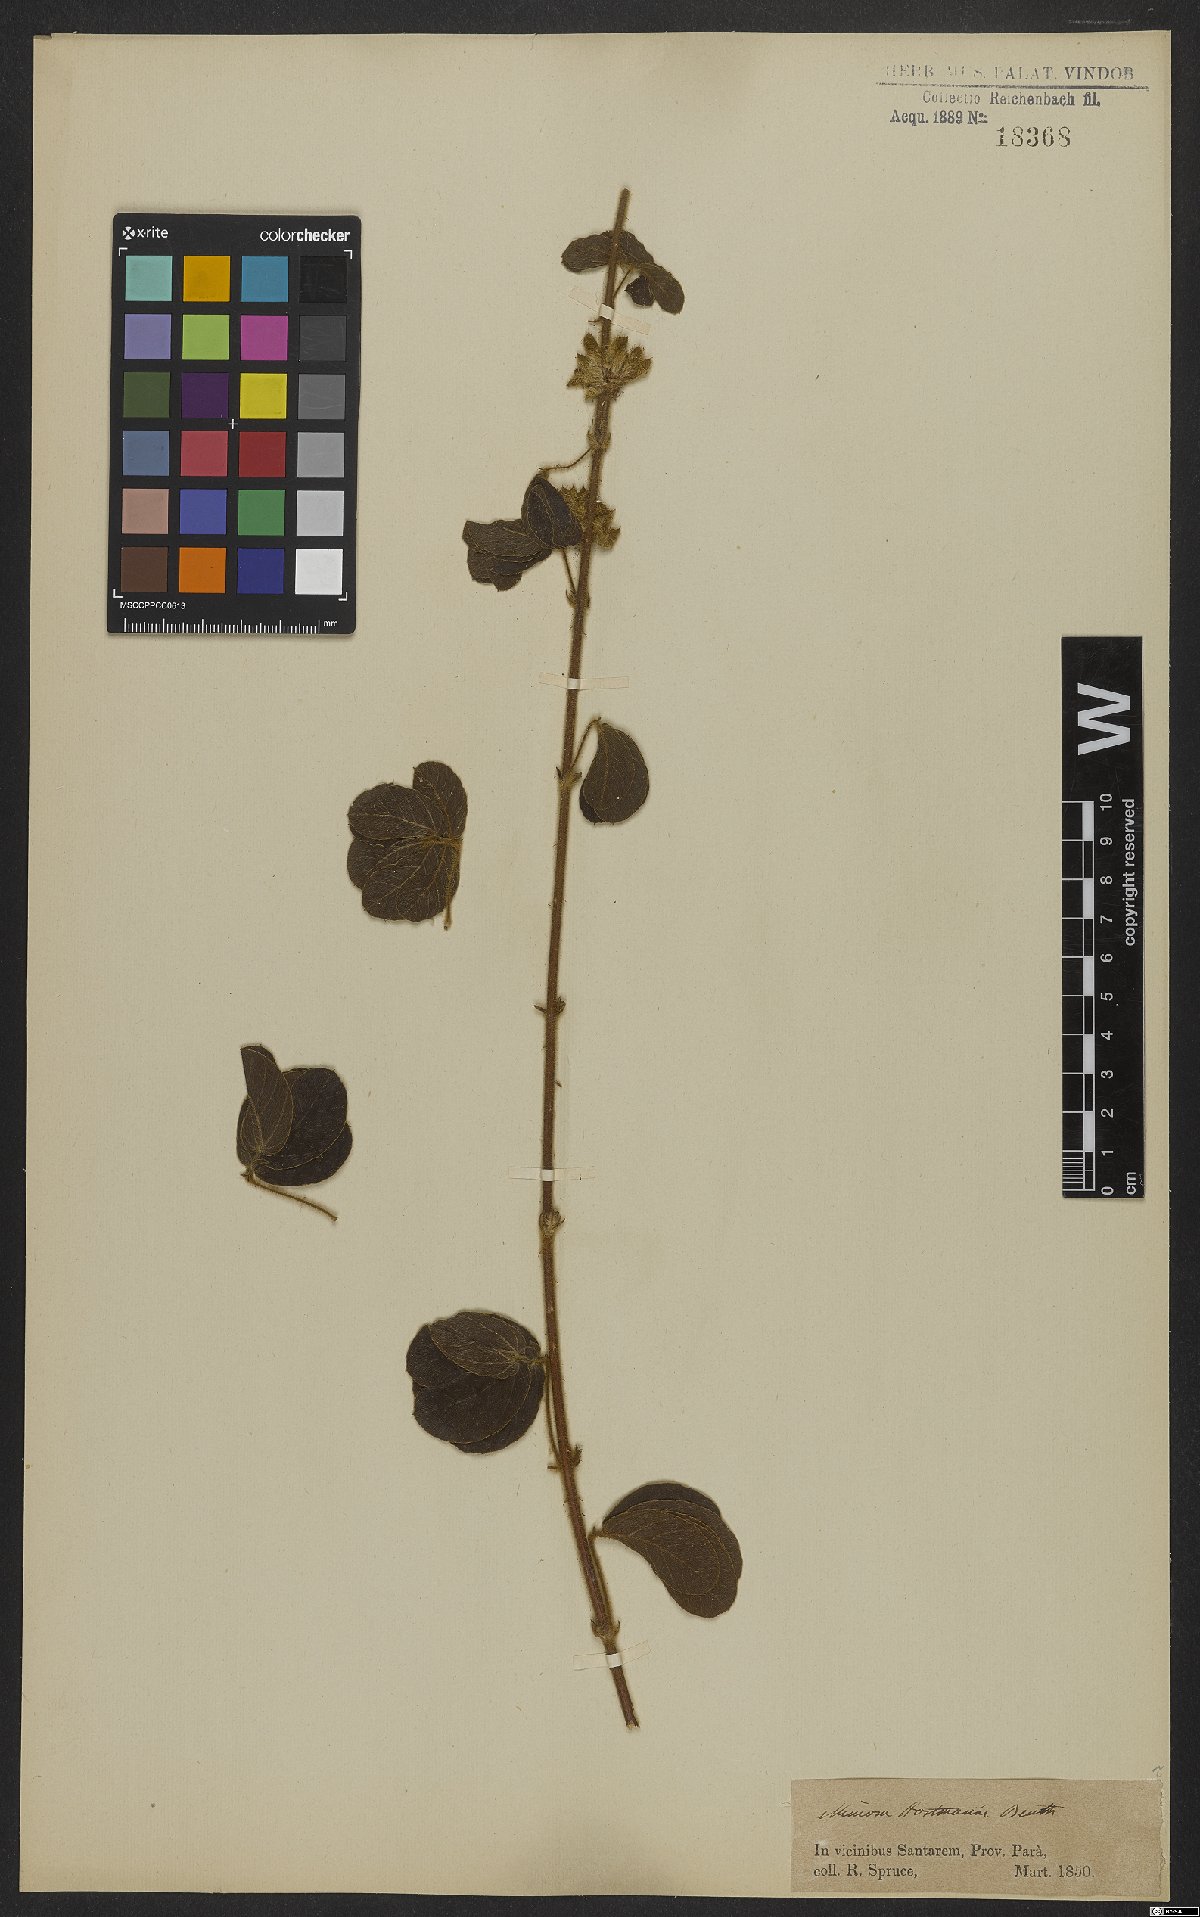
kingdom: Plantae
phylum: Tracheophyta
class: Magnoliopsida
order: Fabales
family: Fabaceae
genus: Mimosa
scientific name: Mimosa debilis
